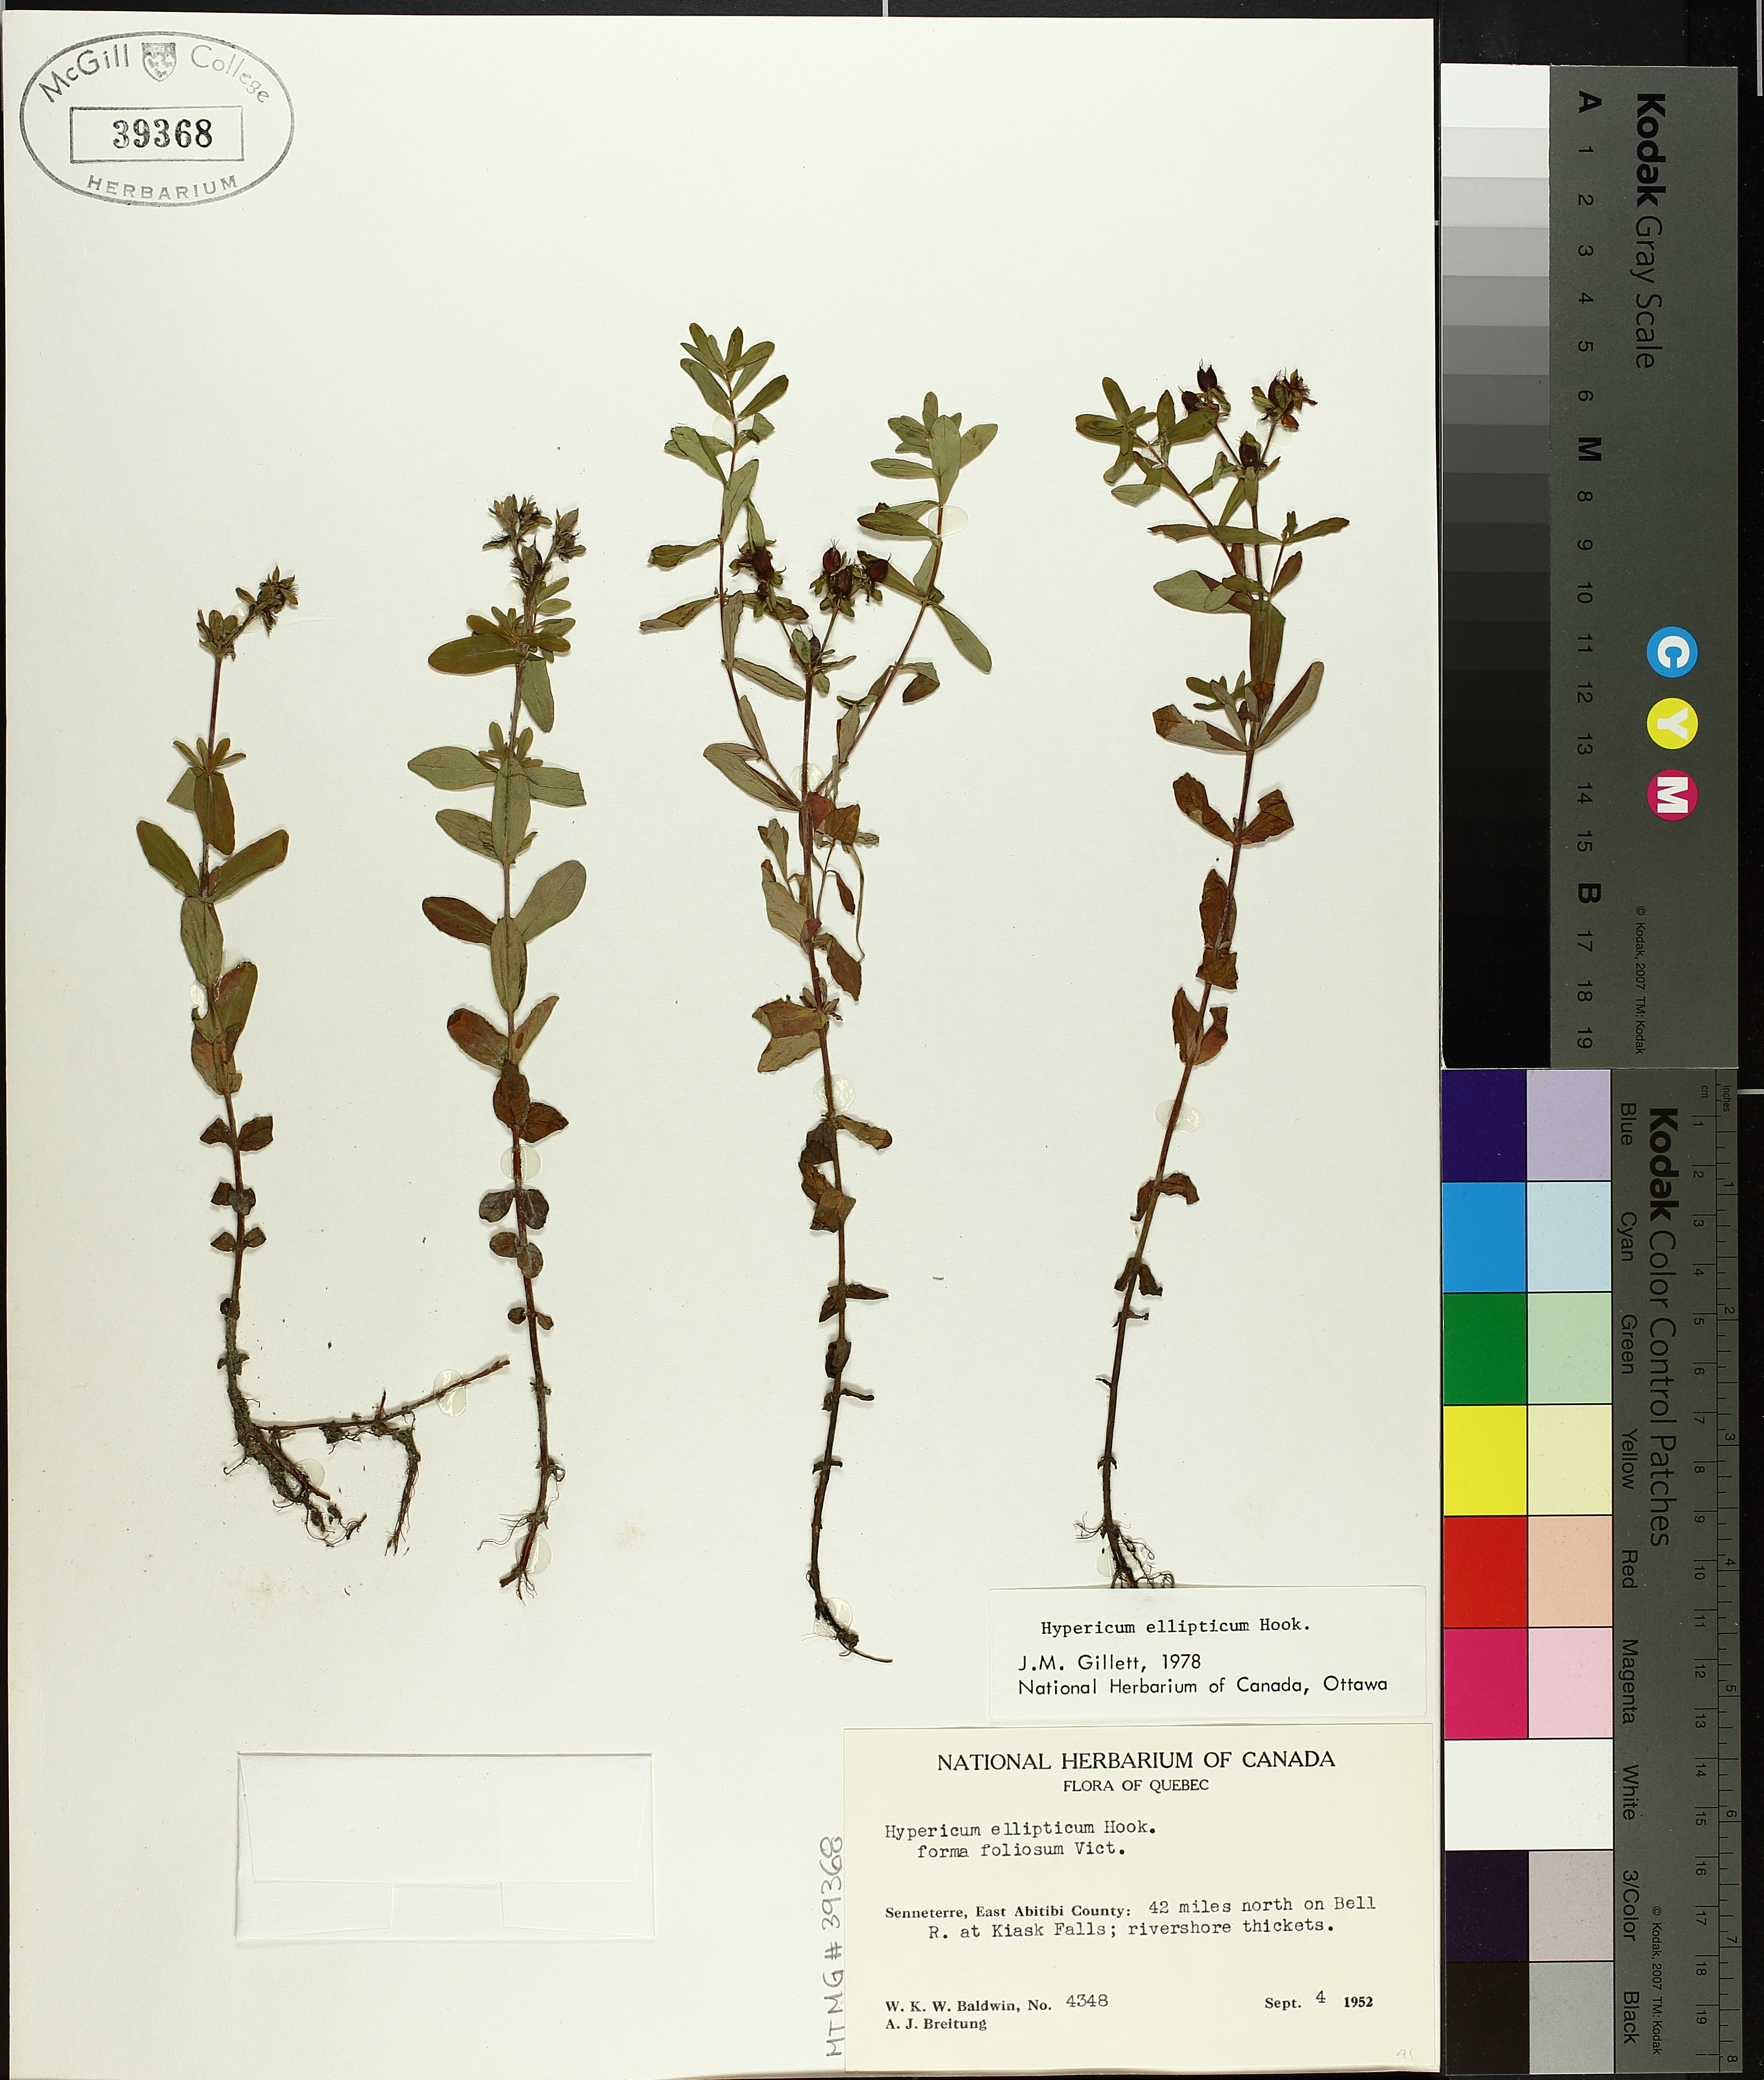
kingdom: Plantae
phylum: Tracheophyta
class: Magnoliopsida
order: Malpighiales
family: Hypericaceae
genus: Hypericum
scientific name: Hypericum ellipticum
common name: Elliptic st. john's-wort
